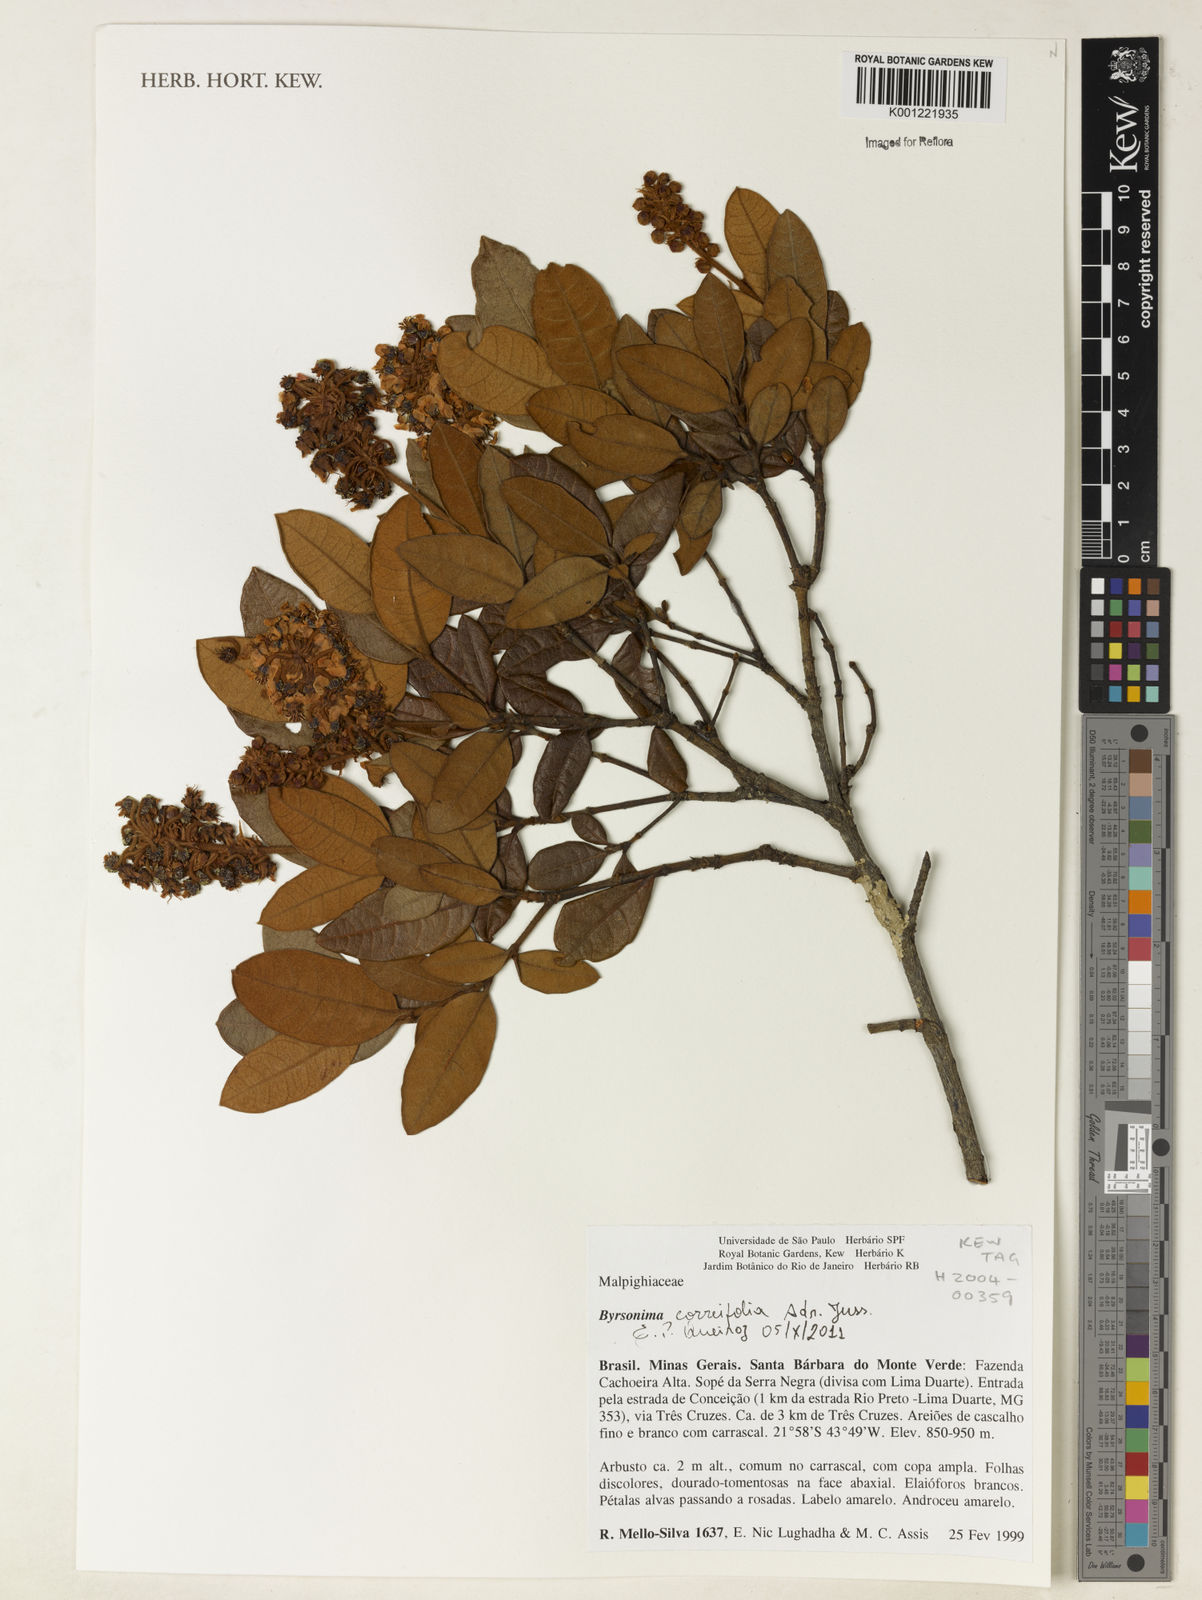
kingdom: Plantae
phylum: Tracheophyta
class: Magnoliopsida
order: Malpighiales
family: Malpighiaceae
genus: Byrsonima
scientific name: Byrsonima correifolia
